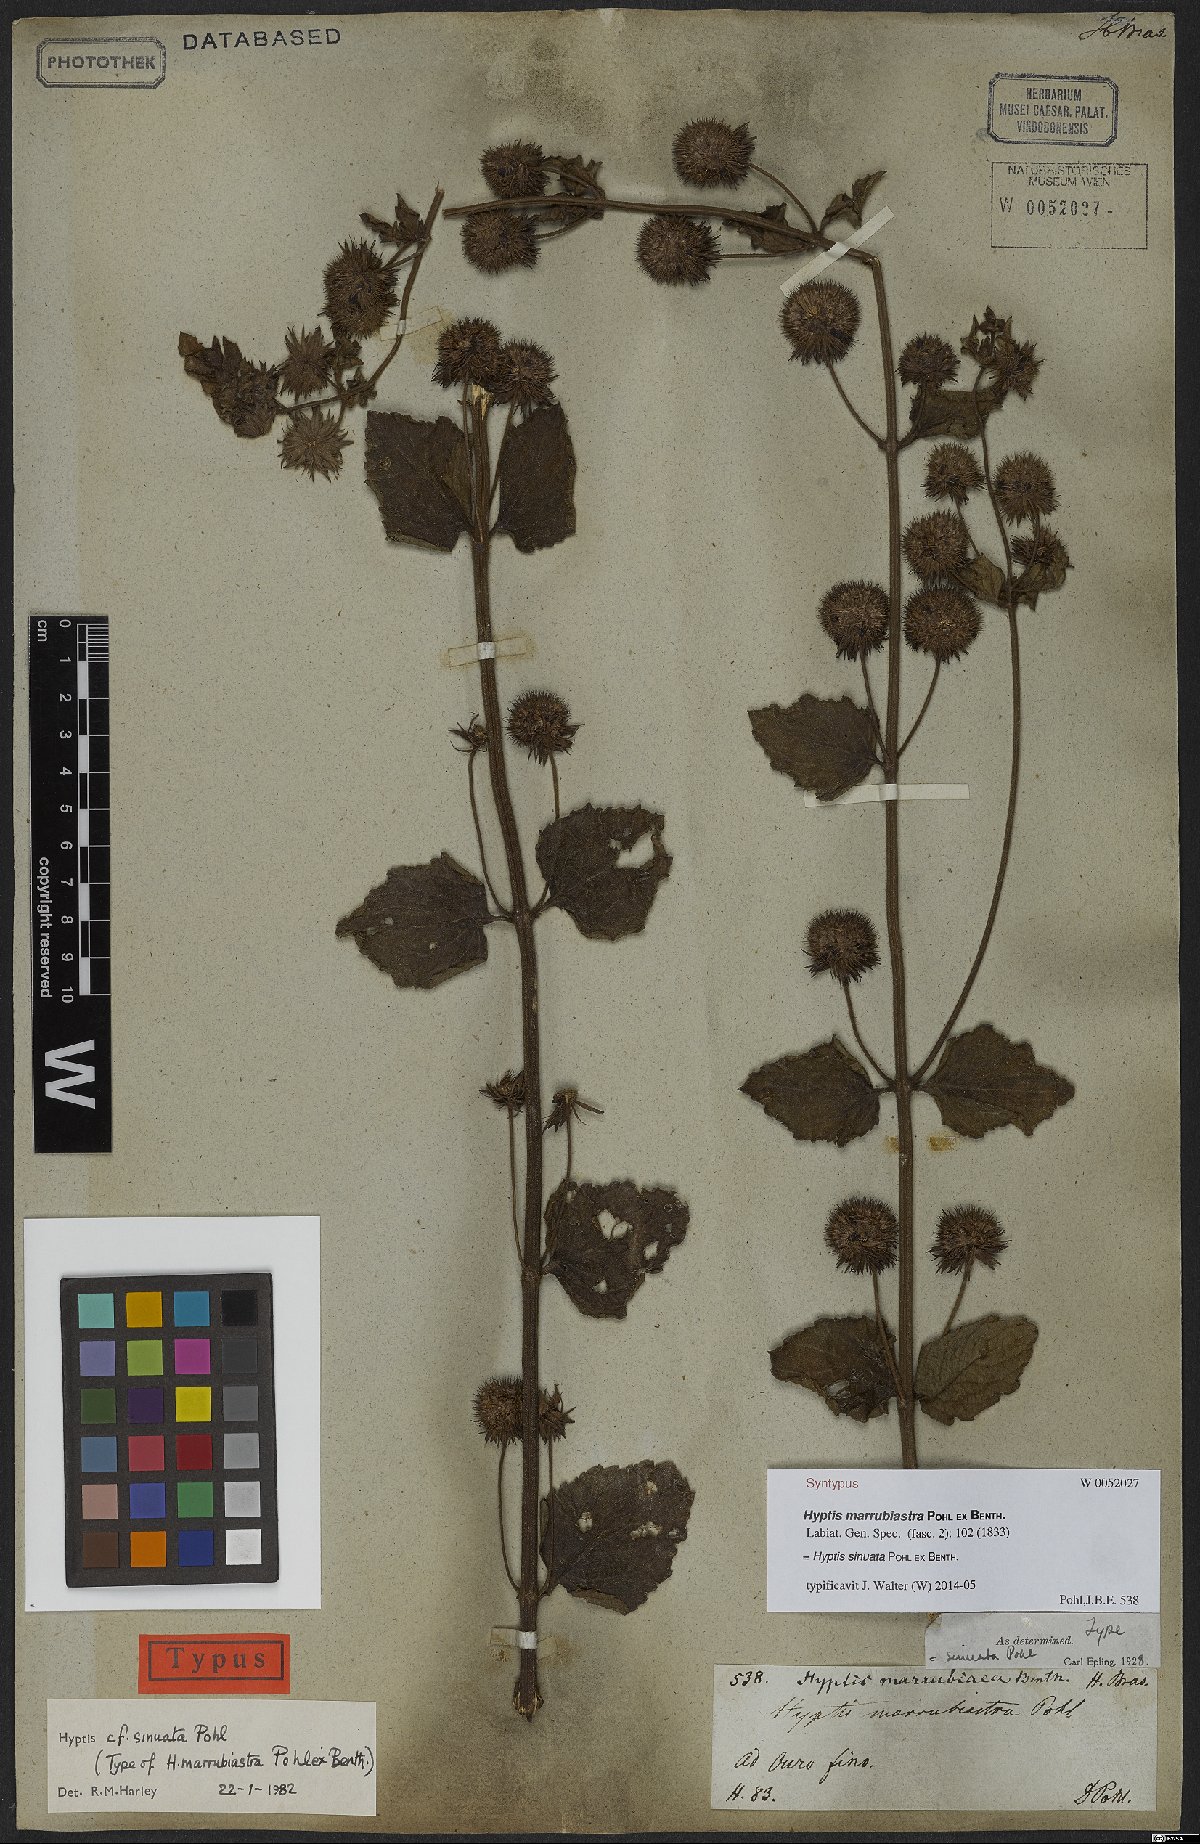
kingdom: Plantae
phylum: Tracheophyta
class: Magnoliopsida
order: Lamiales
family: Lamiaceae
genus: Hyptis
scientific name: Hyptis sinuata
